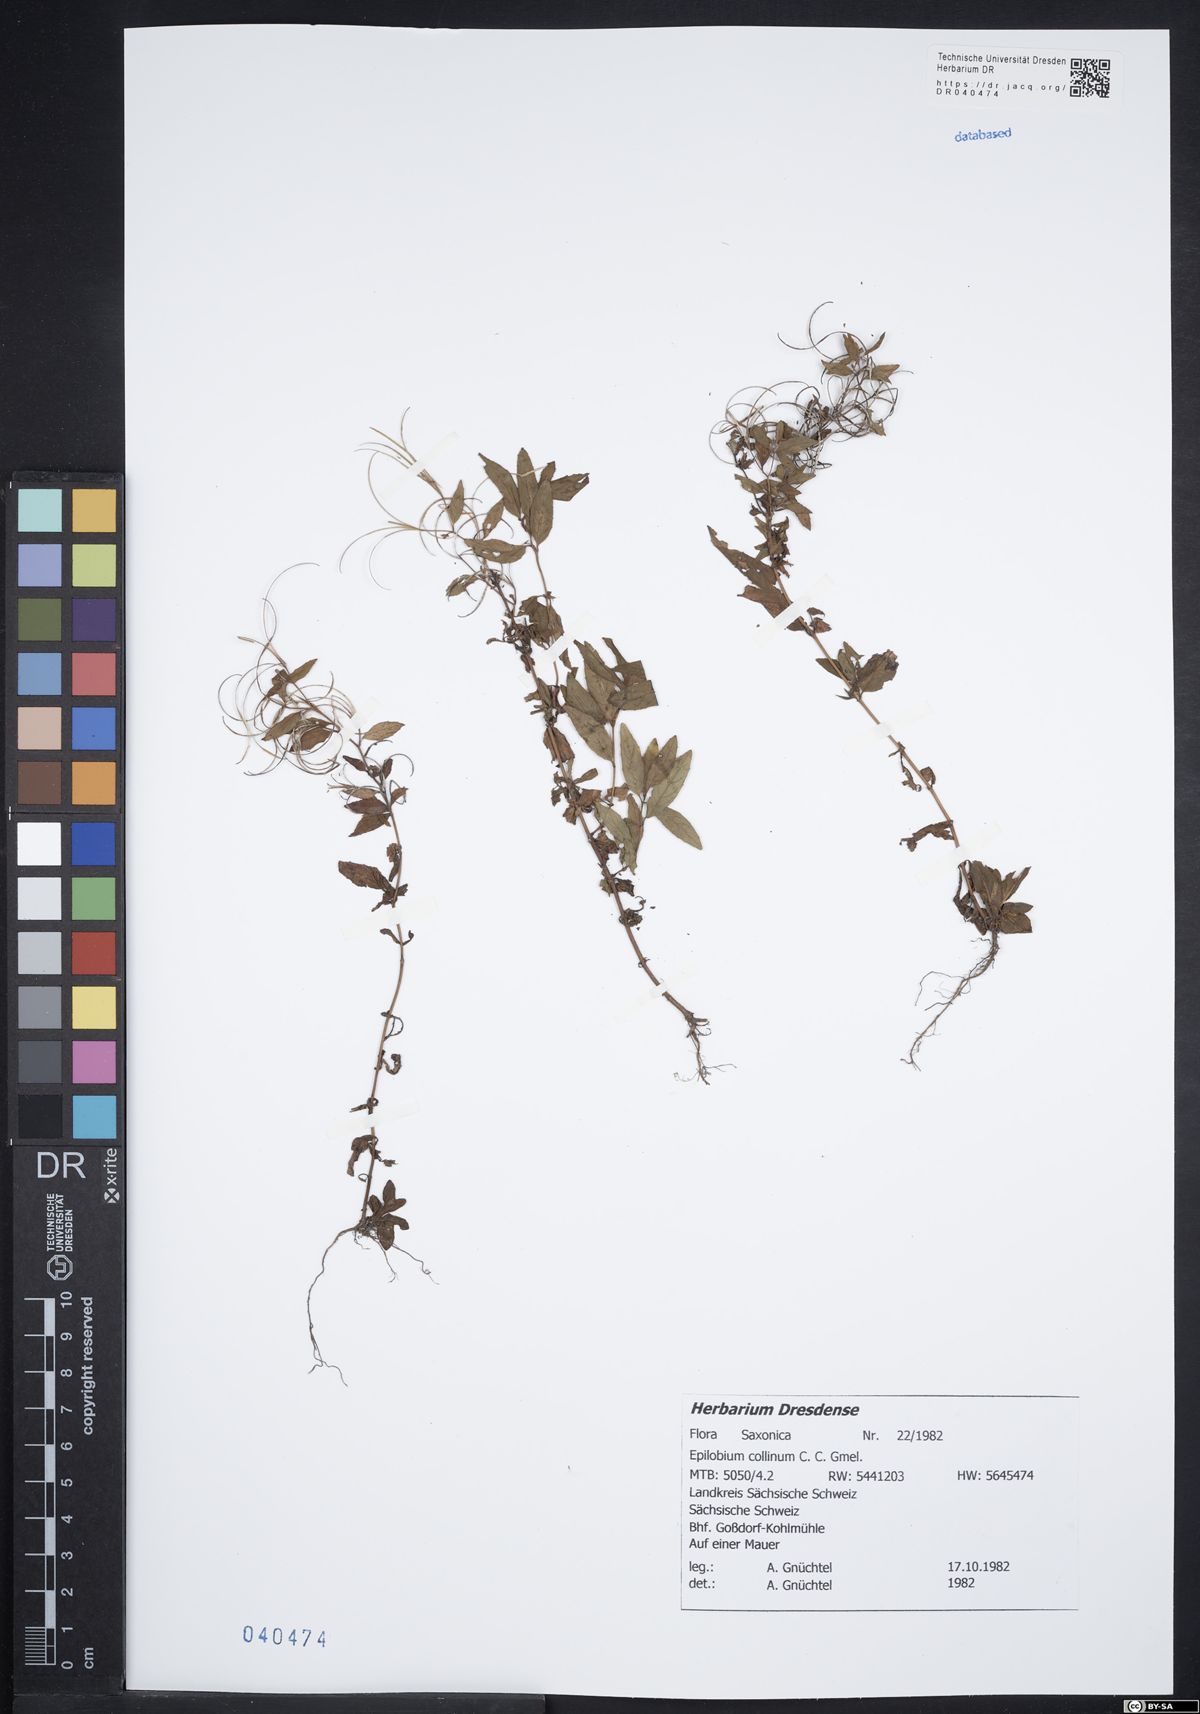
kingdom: Plantae
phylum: Tracheophyta
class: Magnoliopsida
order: Myrtales
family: Onagraceae
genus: Epilobium
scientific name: Epilobium collinum
